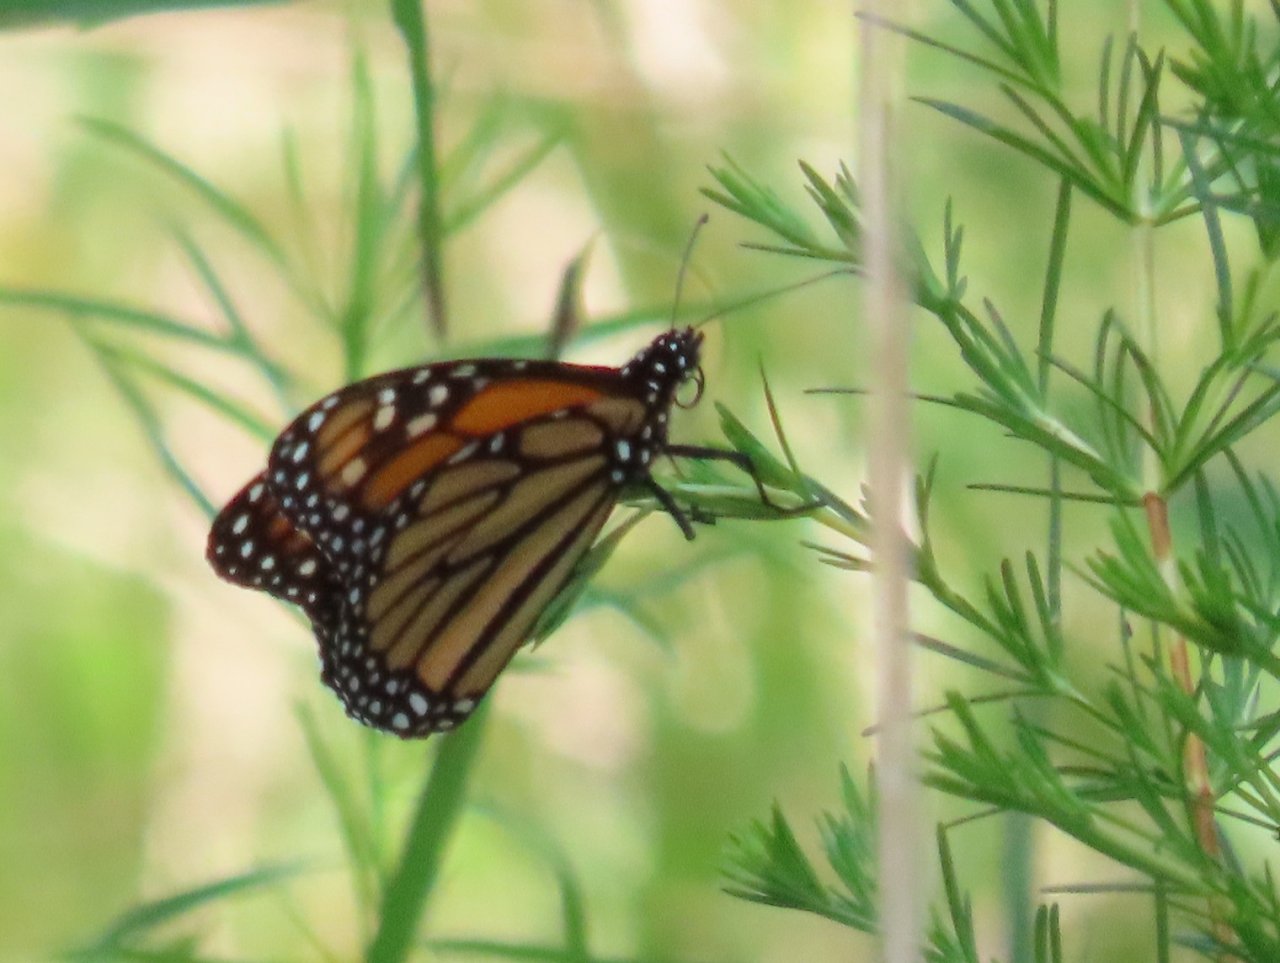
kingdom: Animalia
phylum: Arthropoda
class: Insecta
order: Lepidoptera
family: Nymphalidae
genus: Danaus
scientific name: Danaus plexippus
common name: Monarch
